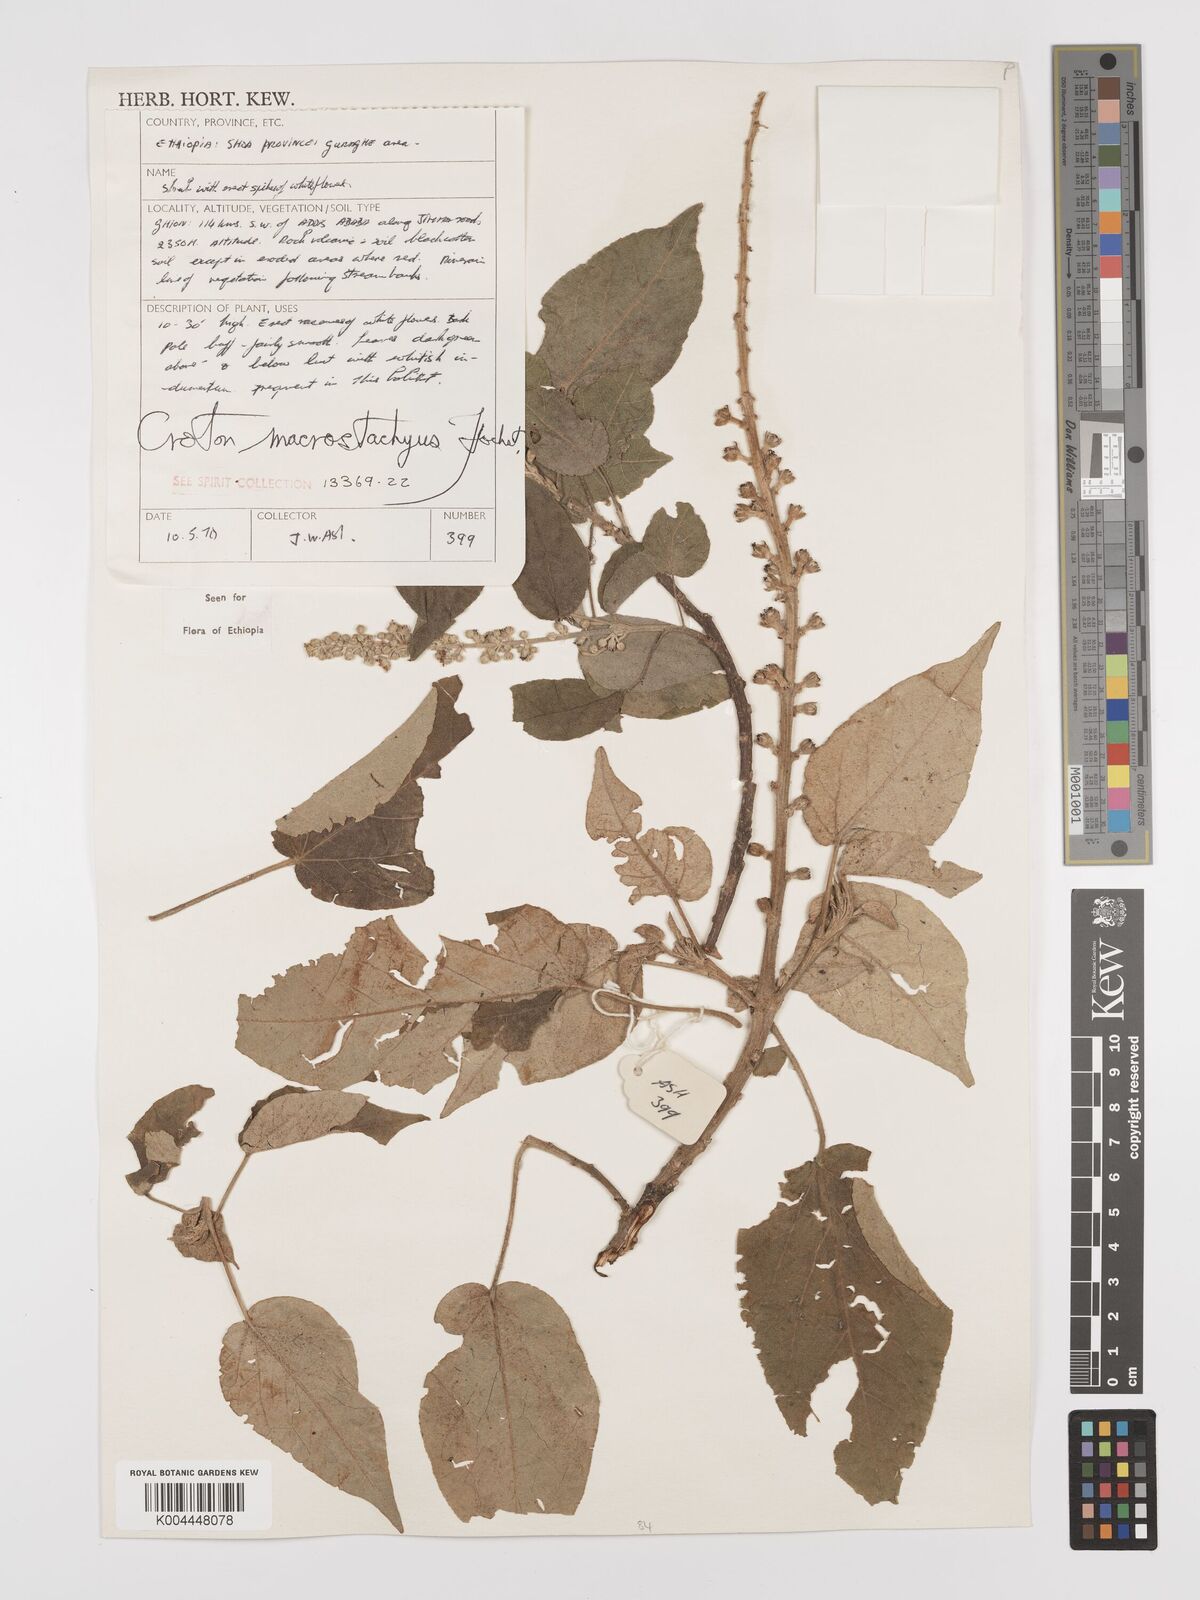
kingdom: Plantae
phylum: Tracheophyta
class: Magnoliopsida
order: Malpighiales
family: Euphorbiaceae
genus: Croton
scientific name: Croton macrostachyus
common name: Mutundu
